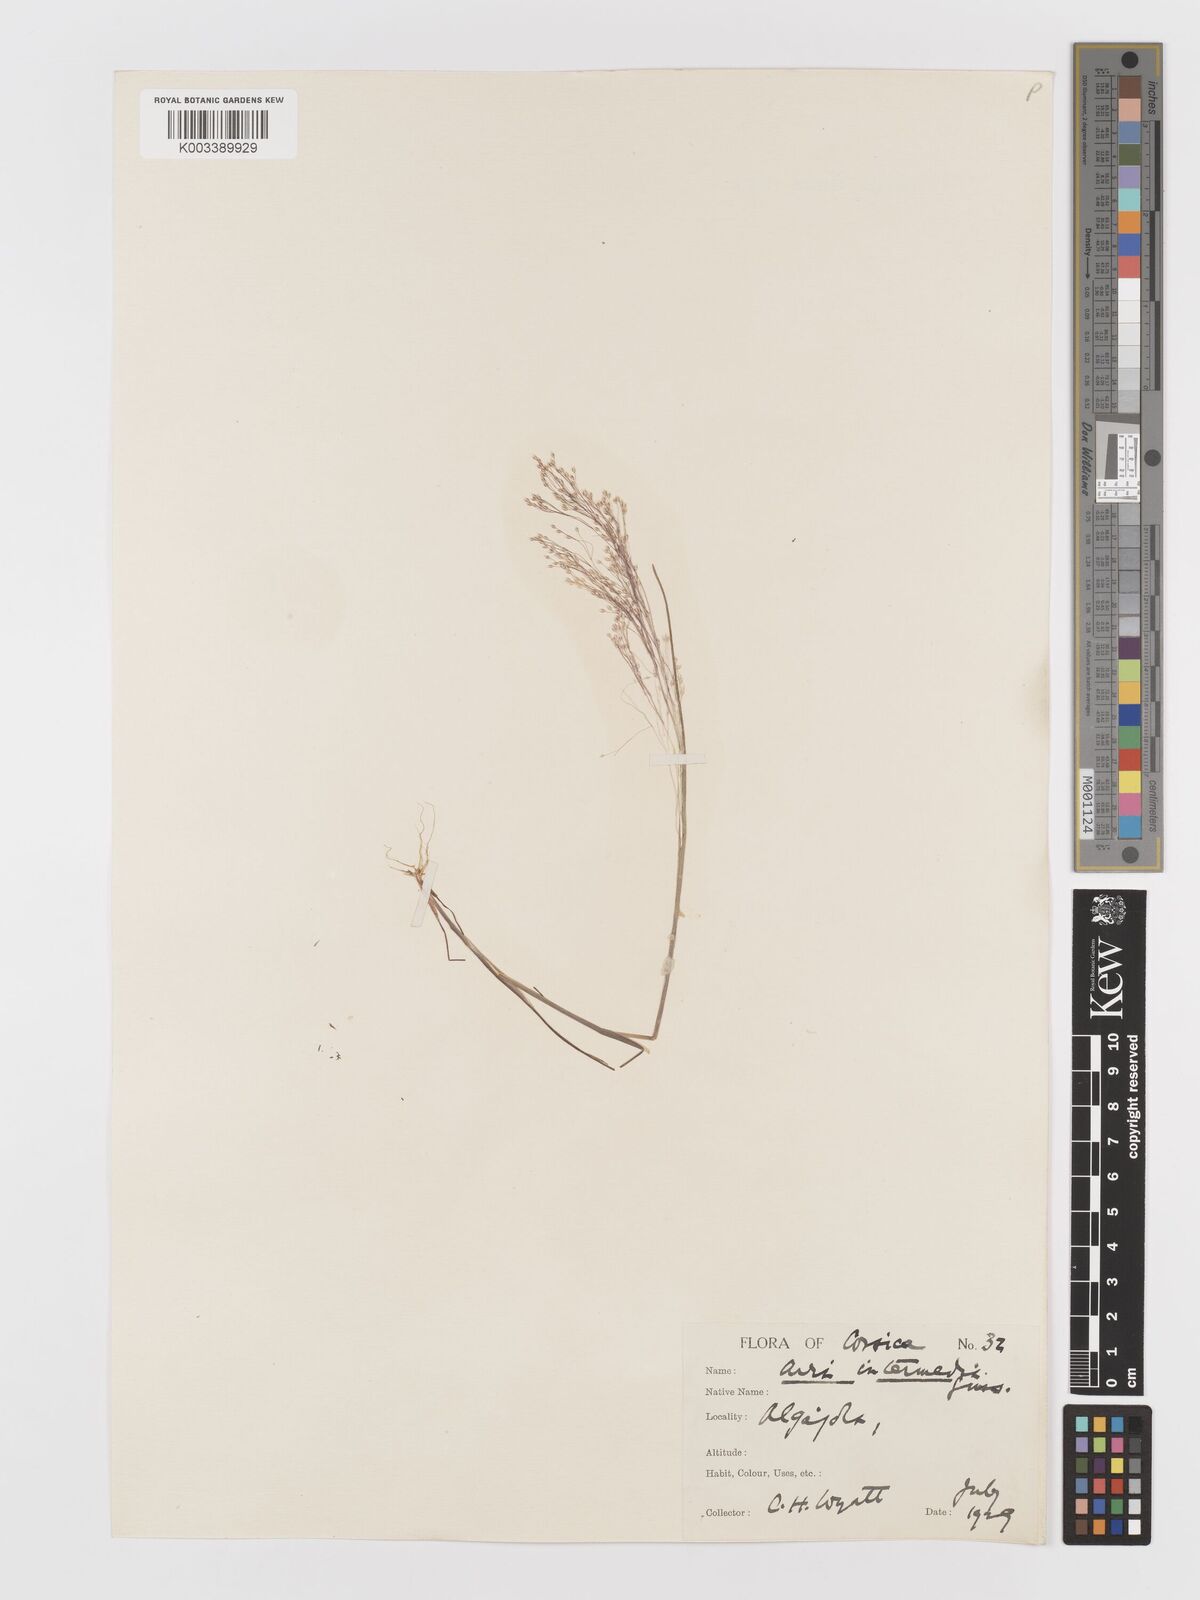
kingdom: Plantae
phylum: Tracheophyta
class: Liliopsida
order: Poales
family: Poaceae
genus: Aira
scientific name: Aira
